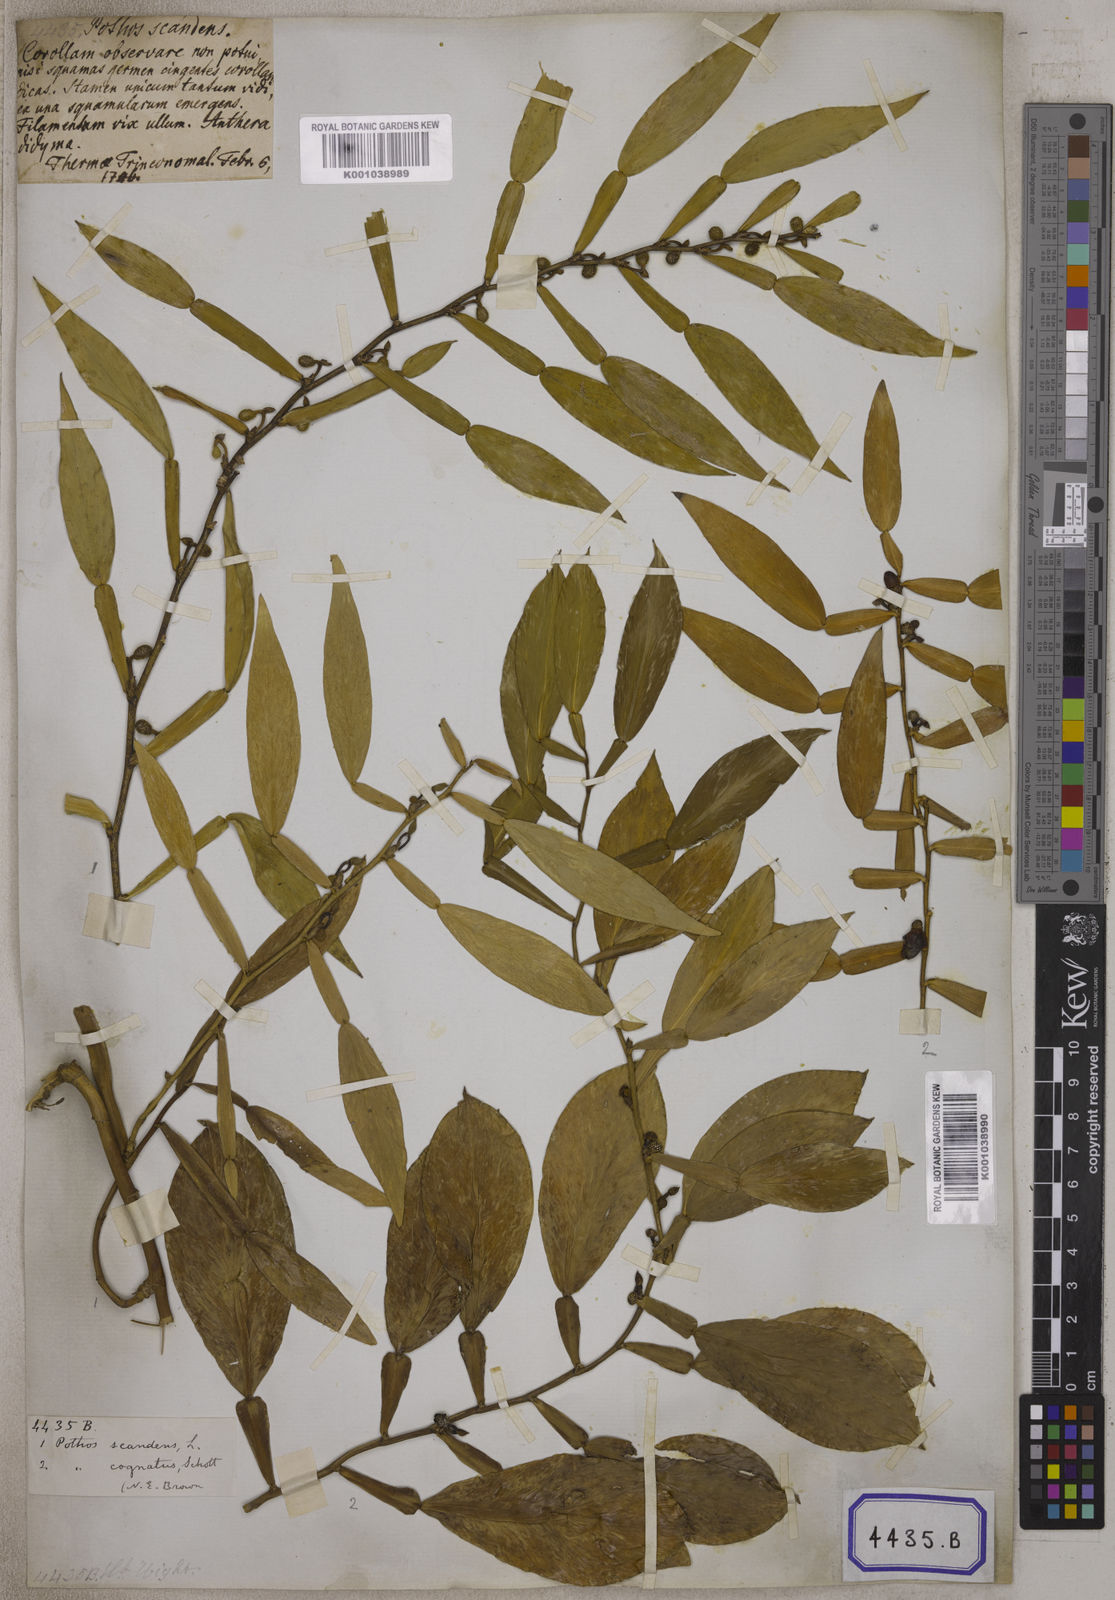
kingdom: Plantae
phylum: Tracheophyta
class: Liliopsida
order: Alismatales
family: Araceae
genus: Pothos
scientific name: Pothos scandens
